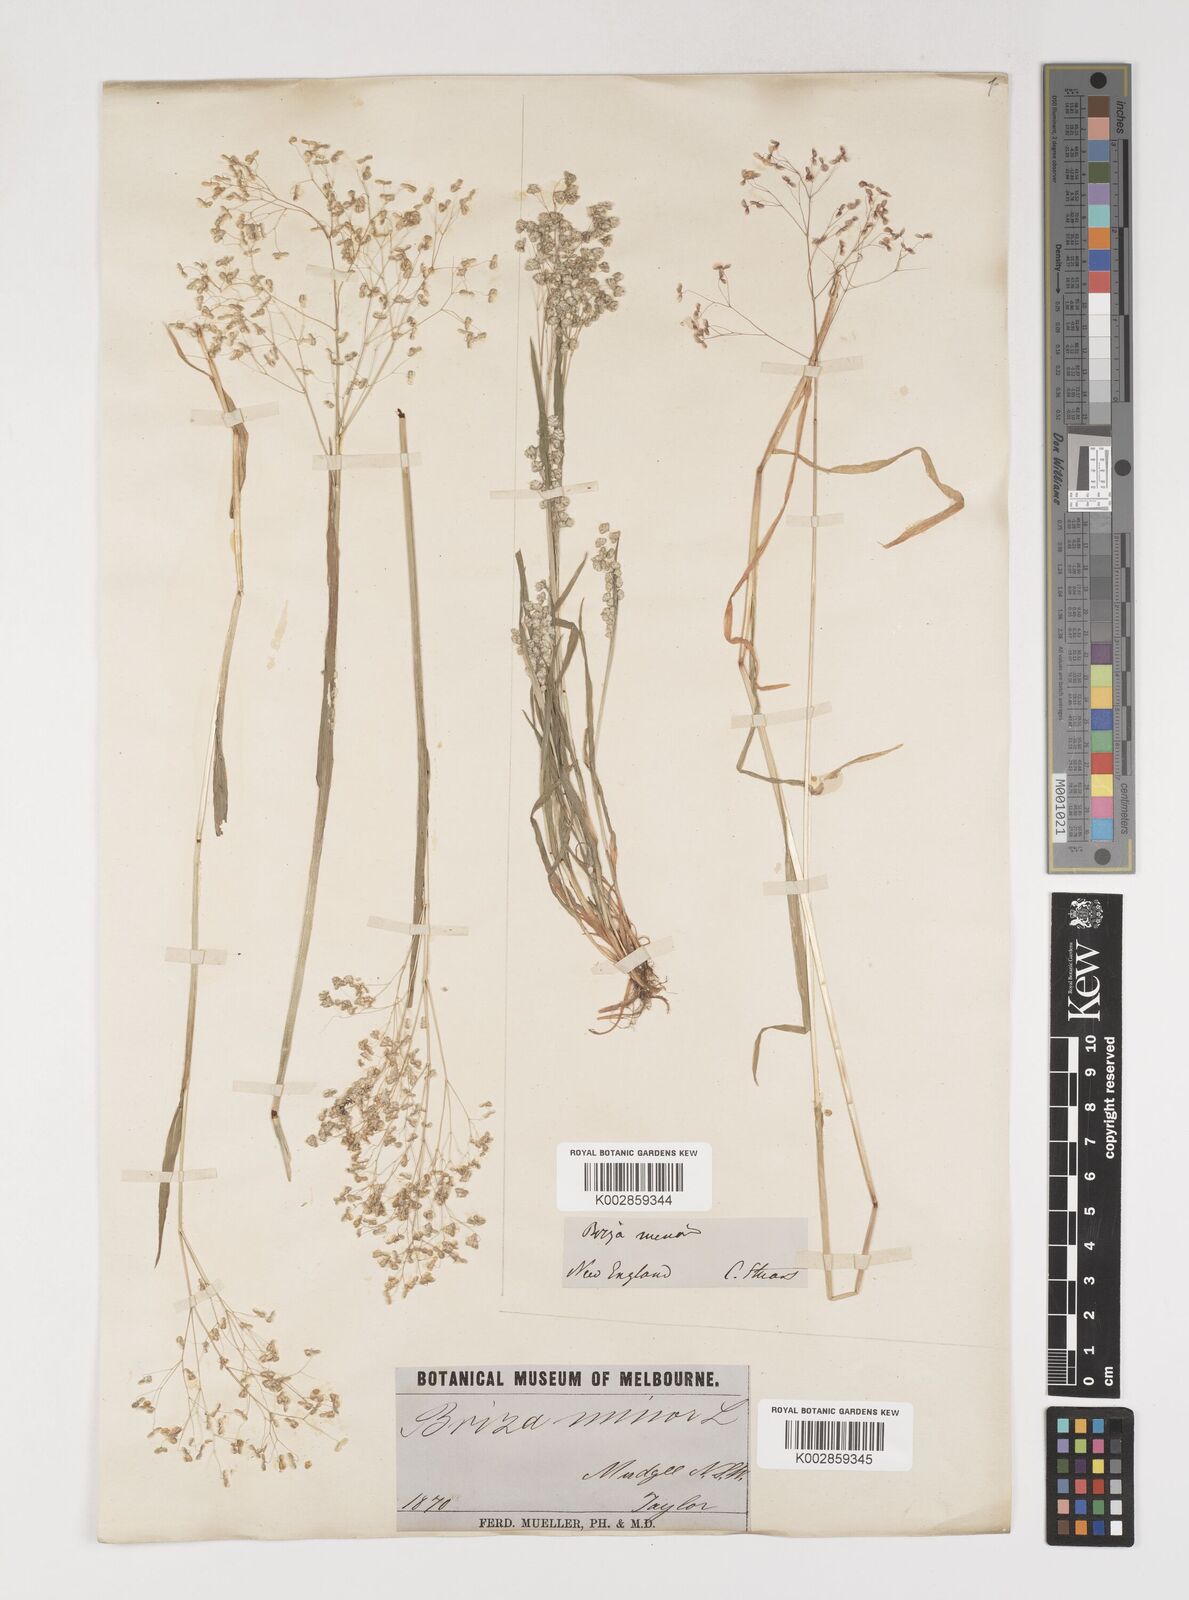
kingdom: Plantae
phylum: Tracheophyta
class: Liliopsida
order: Poales
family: Poaceae
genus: Briza
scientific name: Briza minor
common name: Lesser quaking-grass
